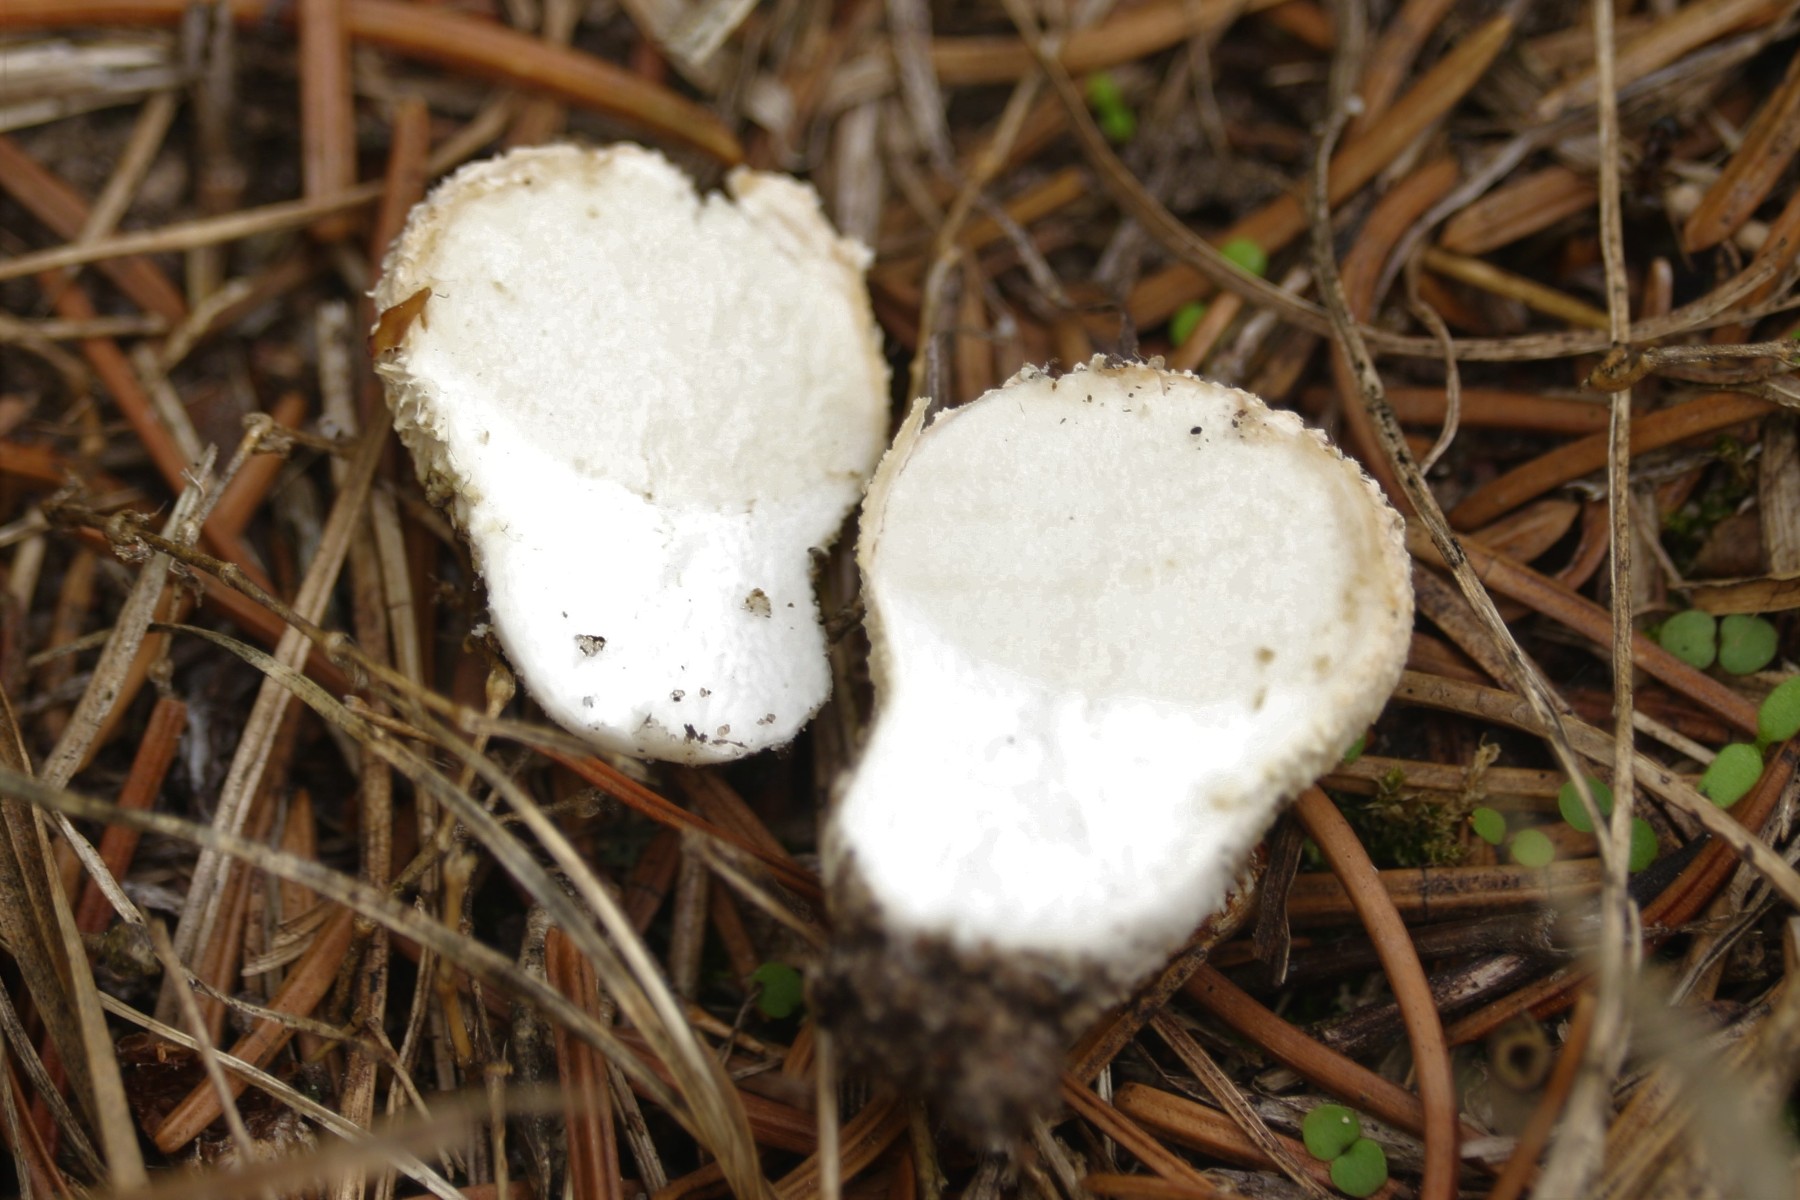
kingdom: Fungi
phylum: Basidiomycota
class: Agaricomycetes
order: Agaricales
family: Lycoperdaceae
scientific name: Lycoperdaceae
